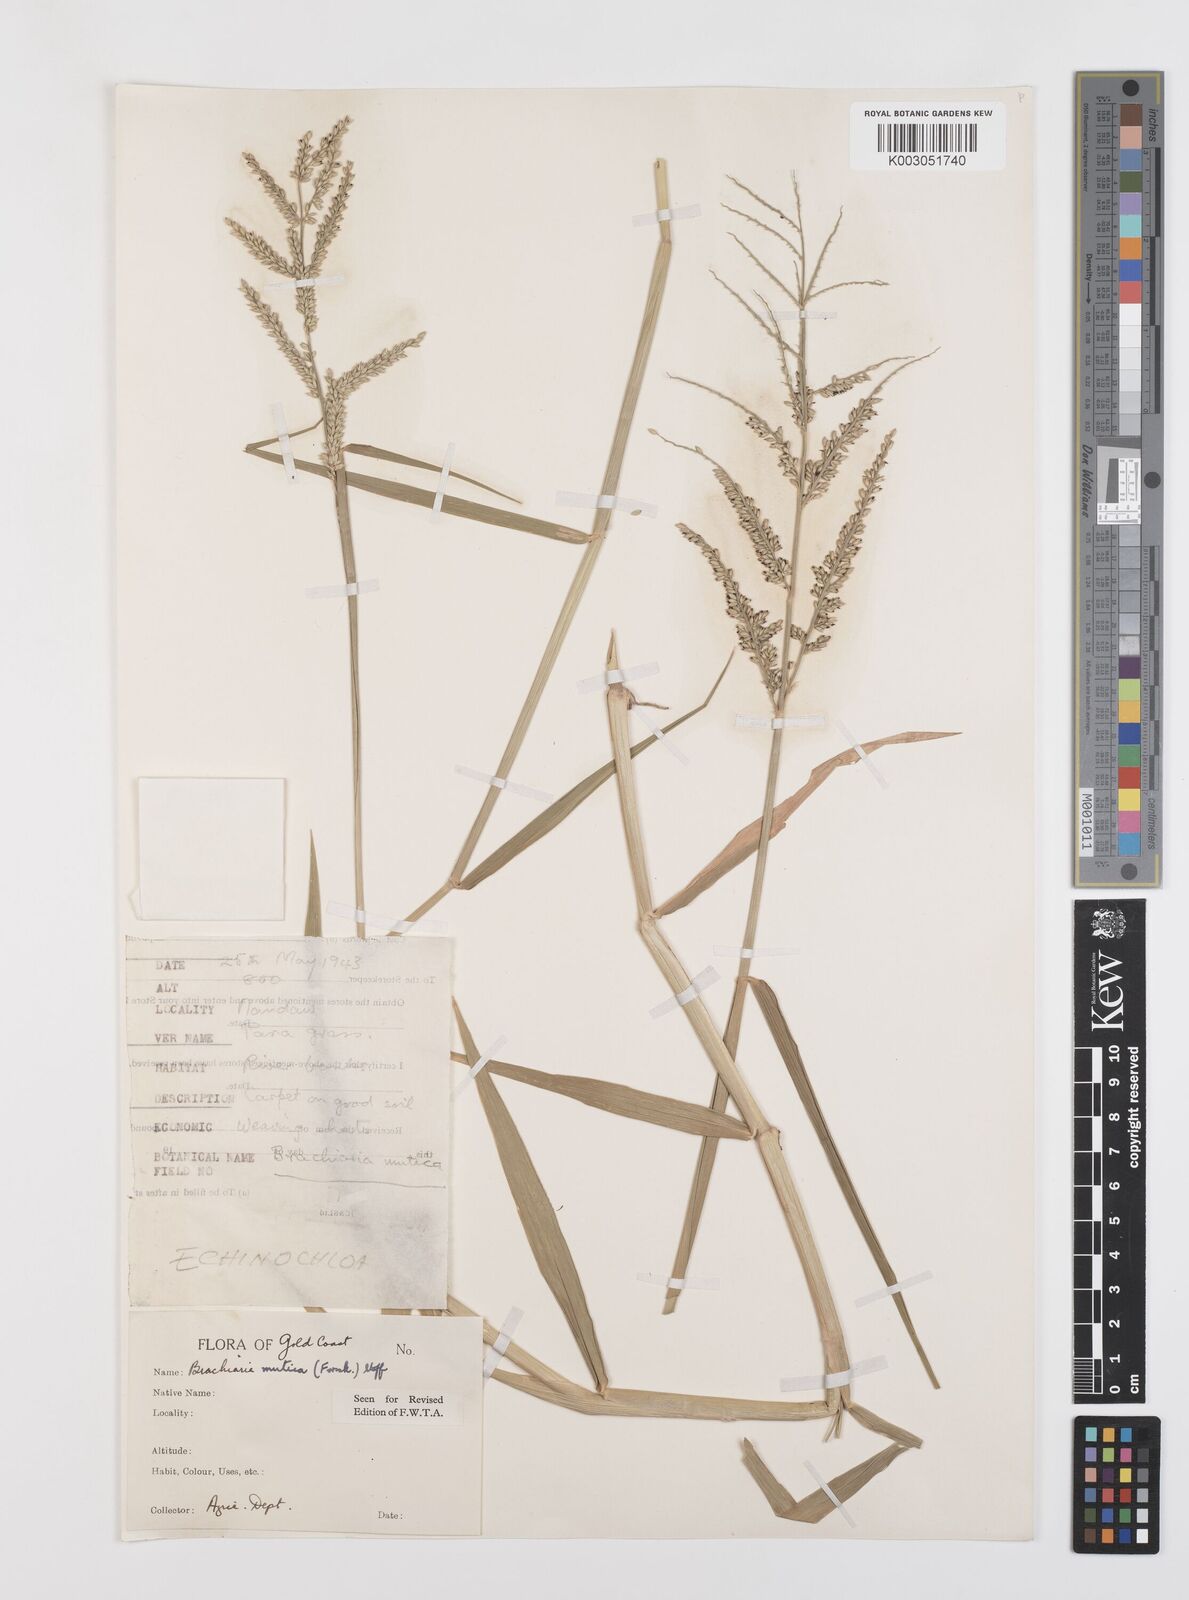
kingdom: Plantae
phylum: Tracheophyta
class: Liliopsida
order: Poales
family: Poaceae
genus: Urochloa
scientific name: Urochloa mutica
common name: Para grass
